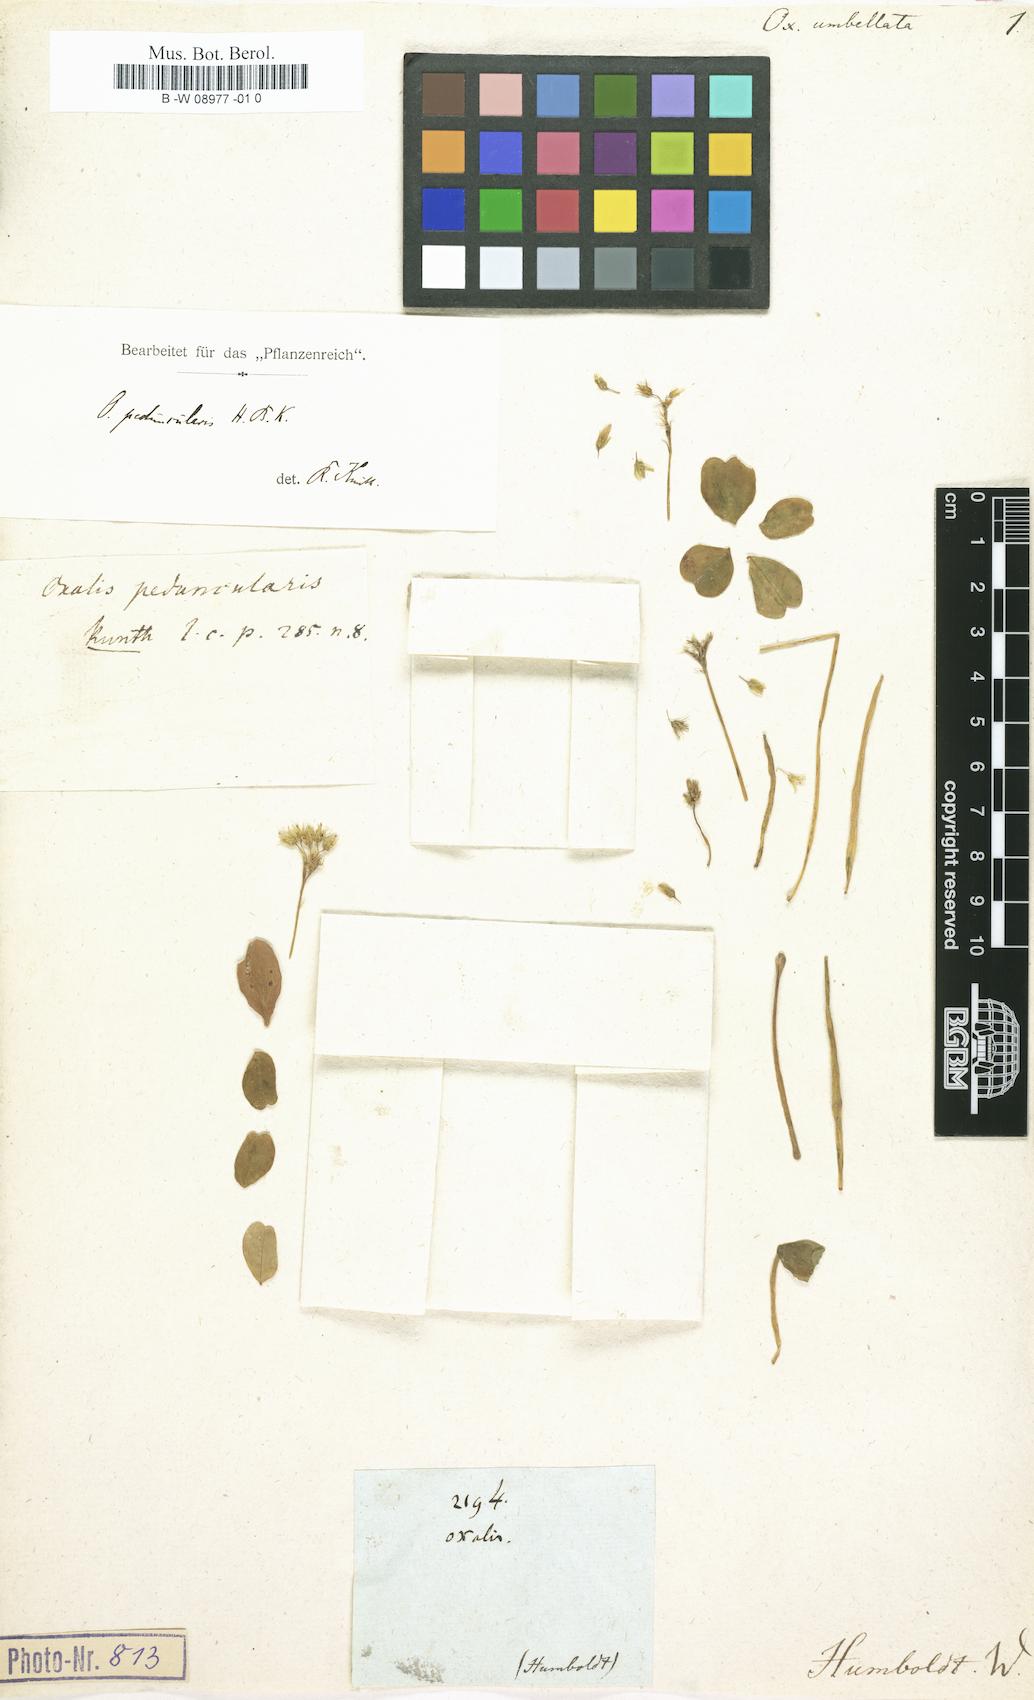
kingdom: Plantae
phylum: Tracheophyta
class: Magnoliopsida
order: Oxalidales
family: Oxalidaceae
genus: Oxalis
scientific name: Oxalis
